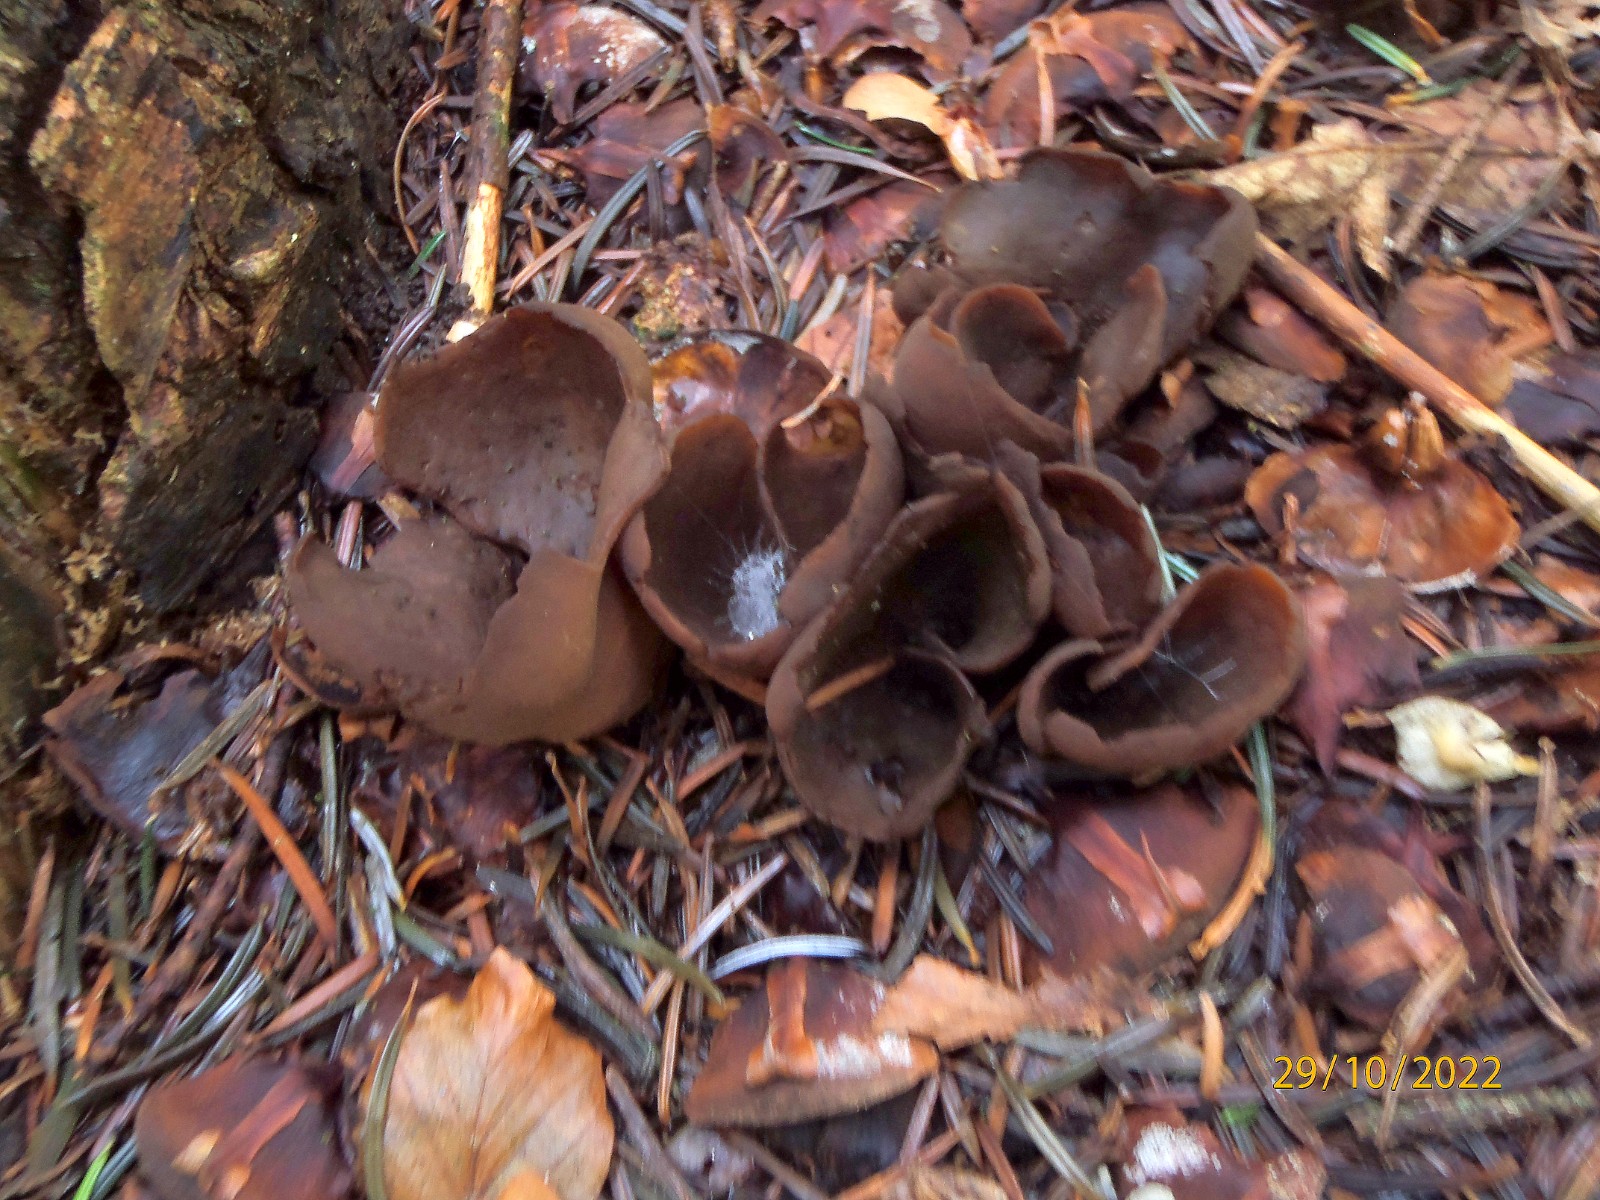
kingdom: Fungi
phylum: Ascomycota
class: Pezizomycetes
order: Pezizales
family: Otideaceae
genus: Otidea
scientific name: Otidea bufonia
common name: brun ørebæger
